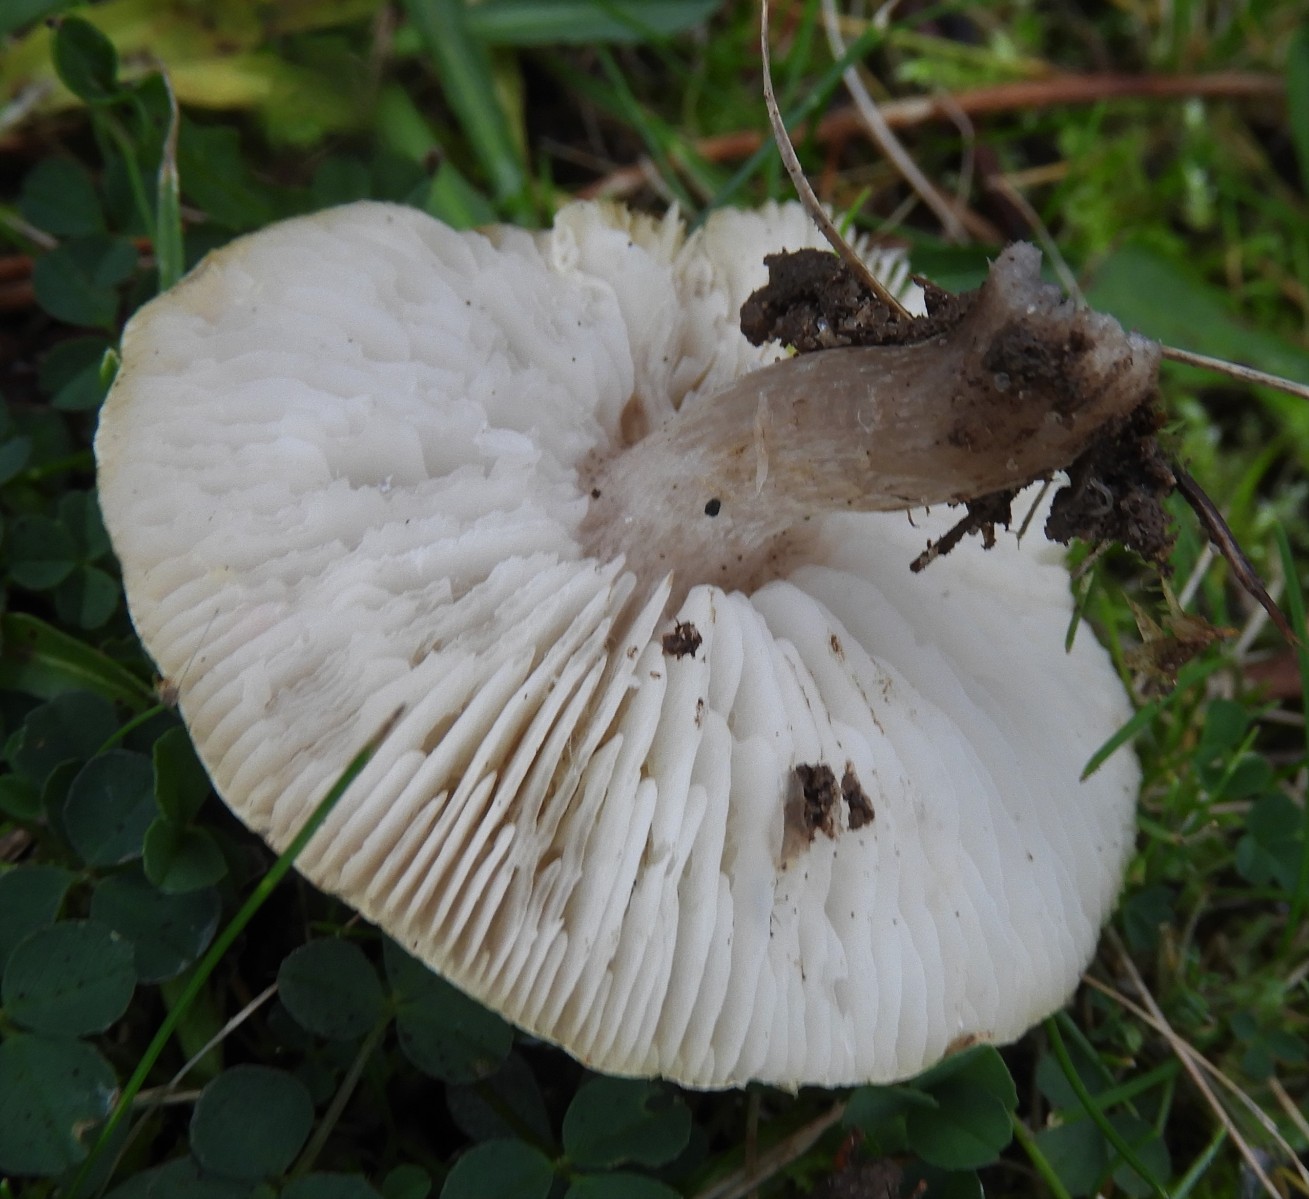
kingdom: Fungi
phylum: Basidiomycota
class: Agaricomycetes
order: Agaricales
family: Tricholomataceae
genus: Tricholoma
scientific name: Tricholoma scalpturatum
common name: gulplettet ridderhat
